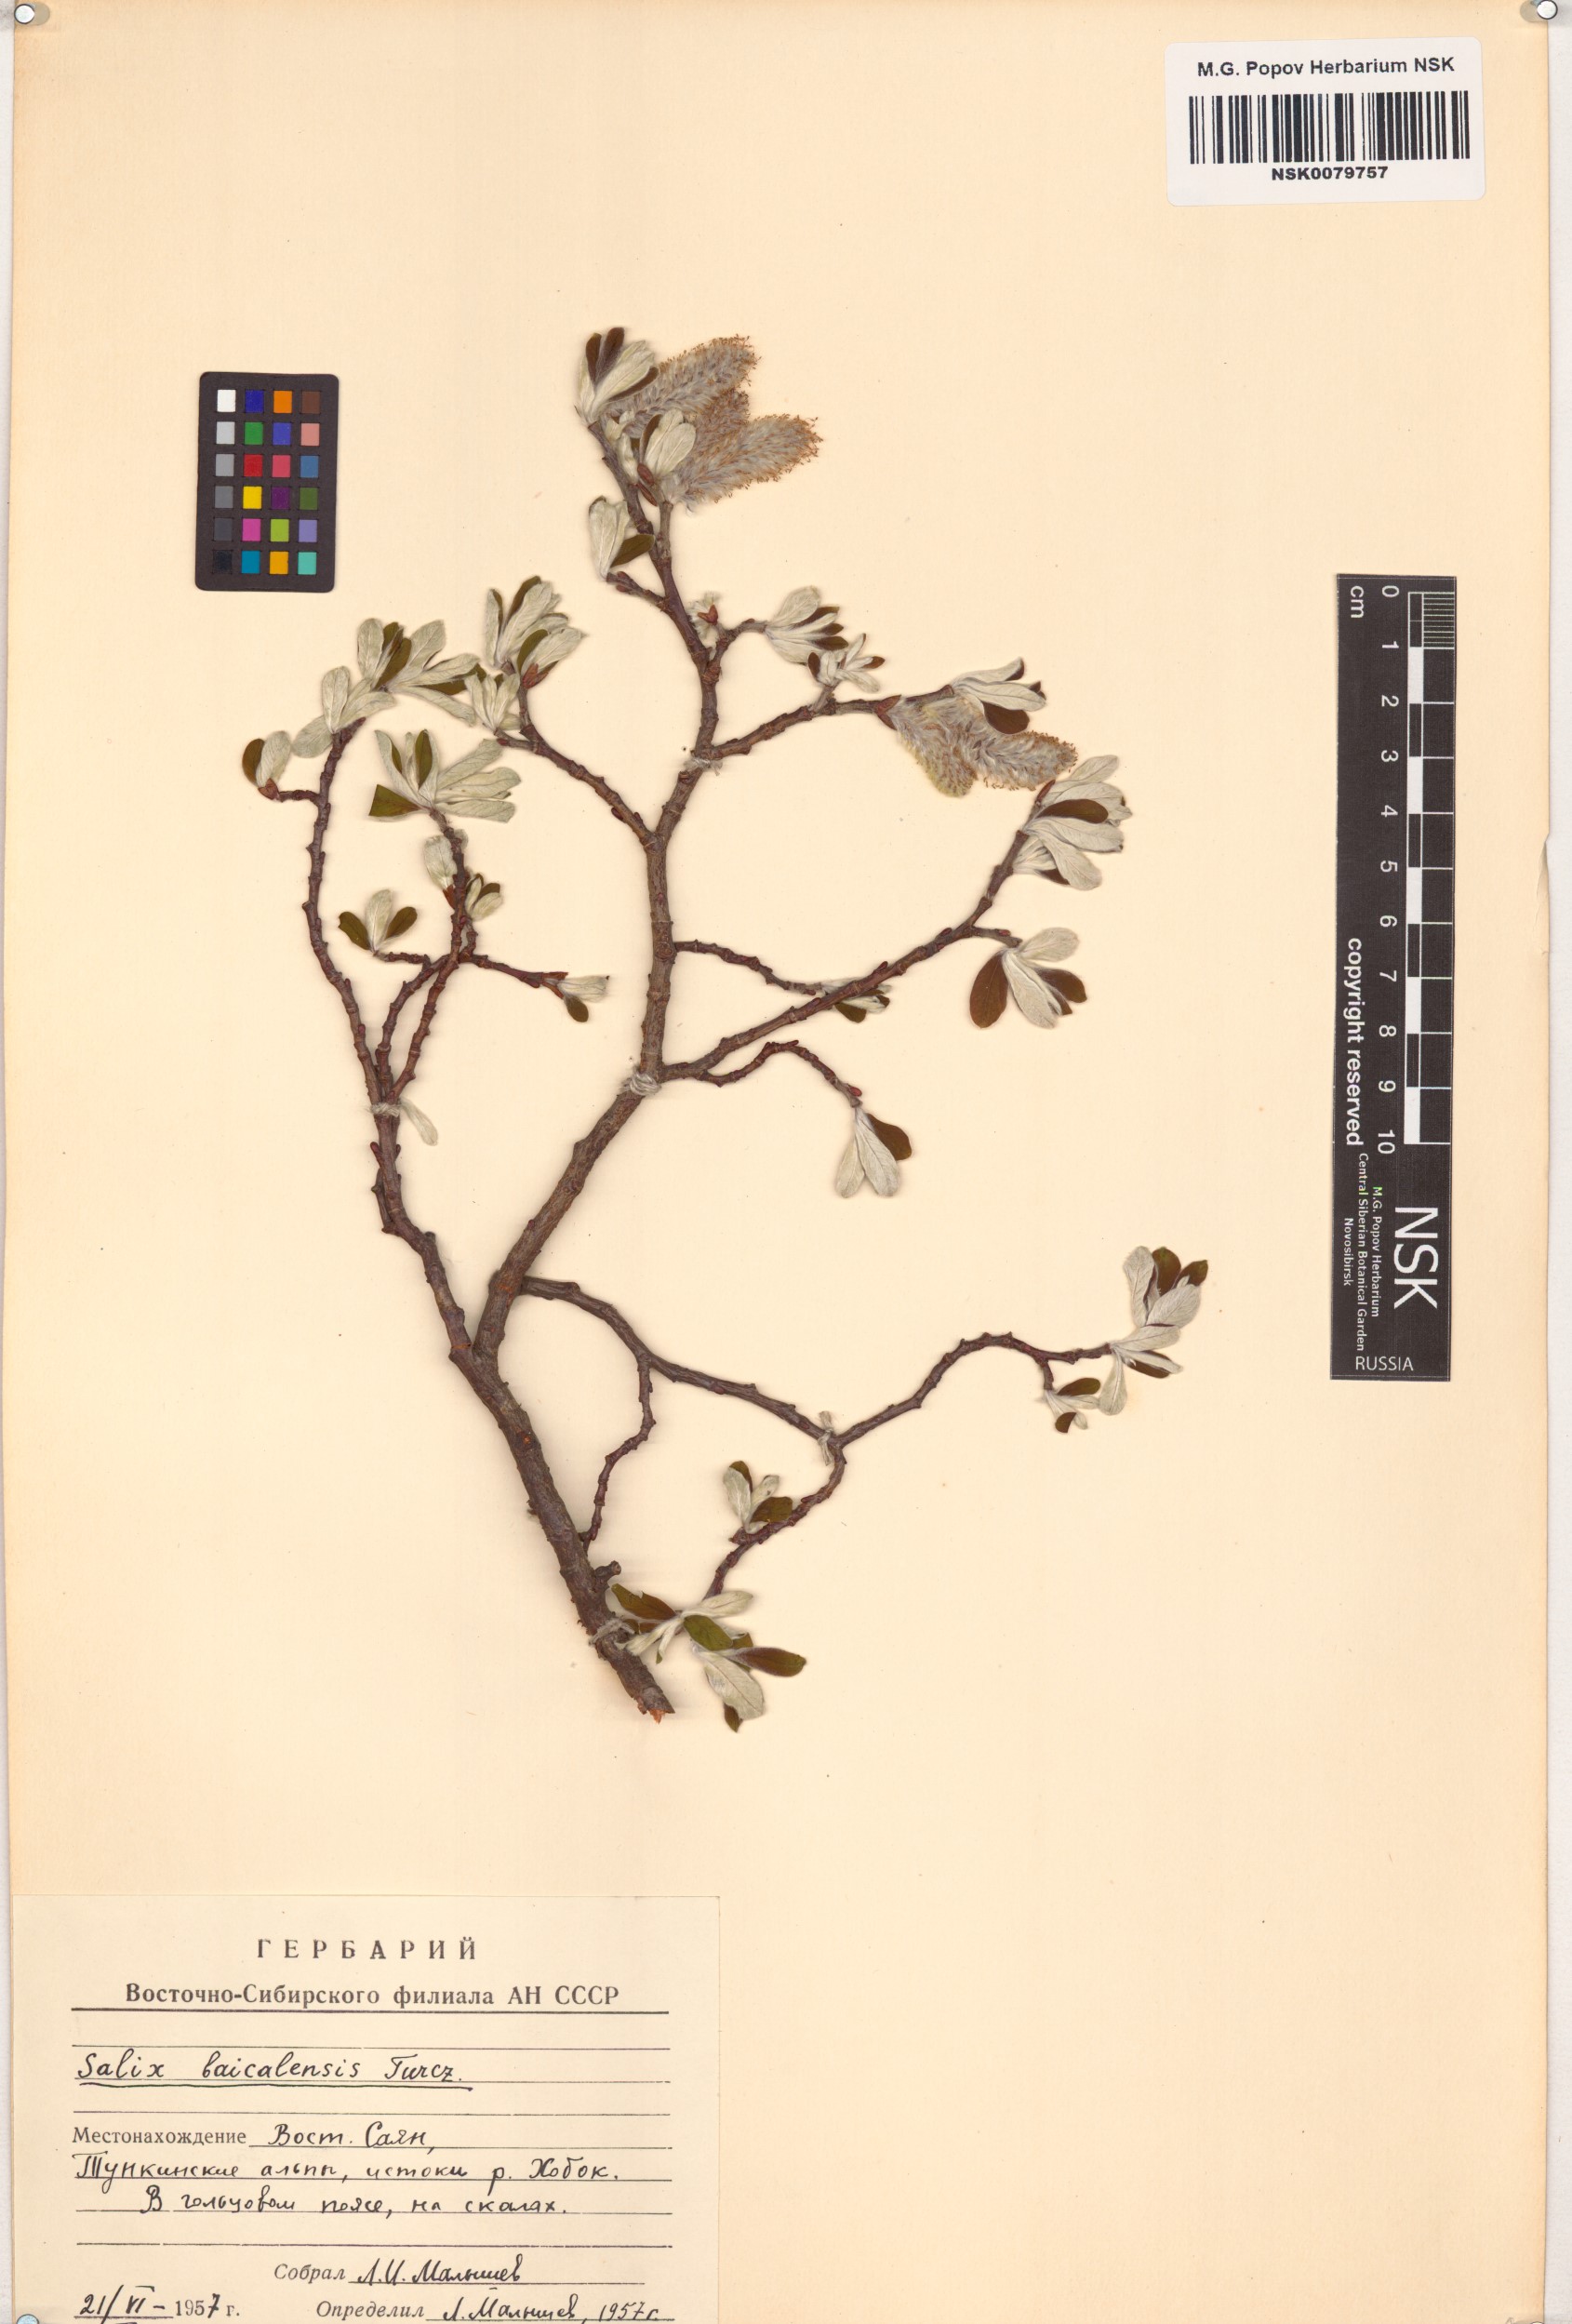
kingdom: Plantae
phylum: Tracheophyta
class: Magnoliopsida
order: Malpighiales
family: Salicaceae
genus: Salix
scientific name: Salix krylovii
